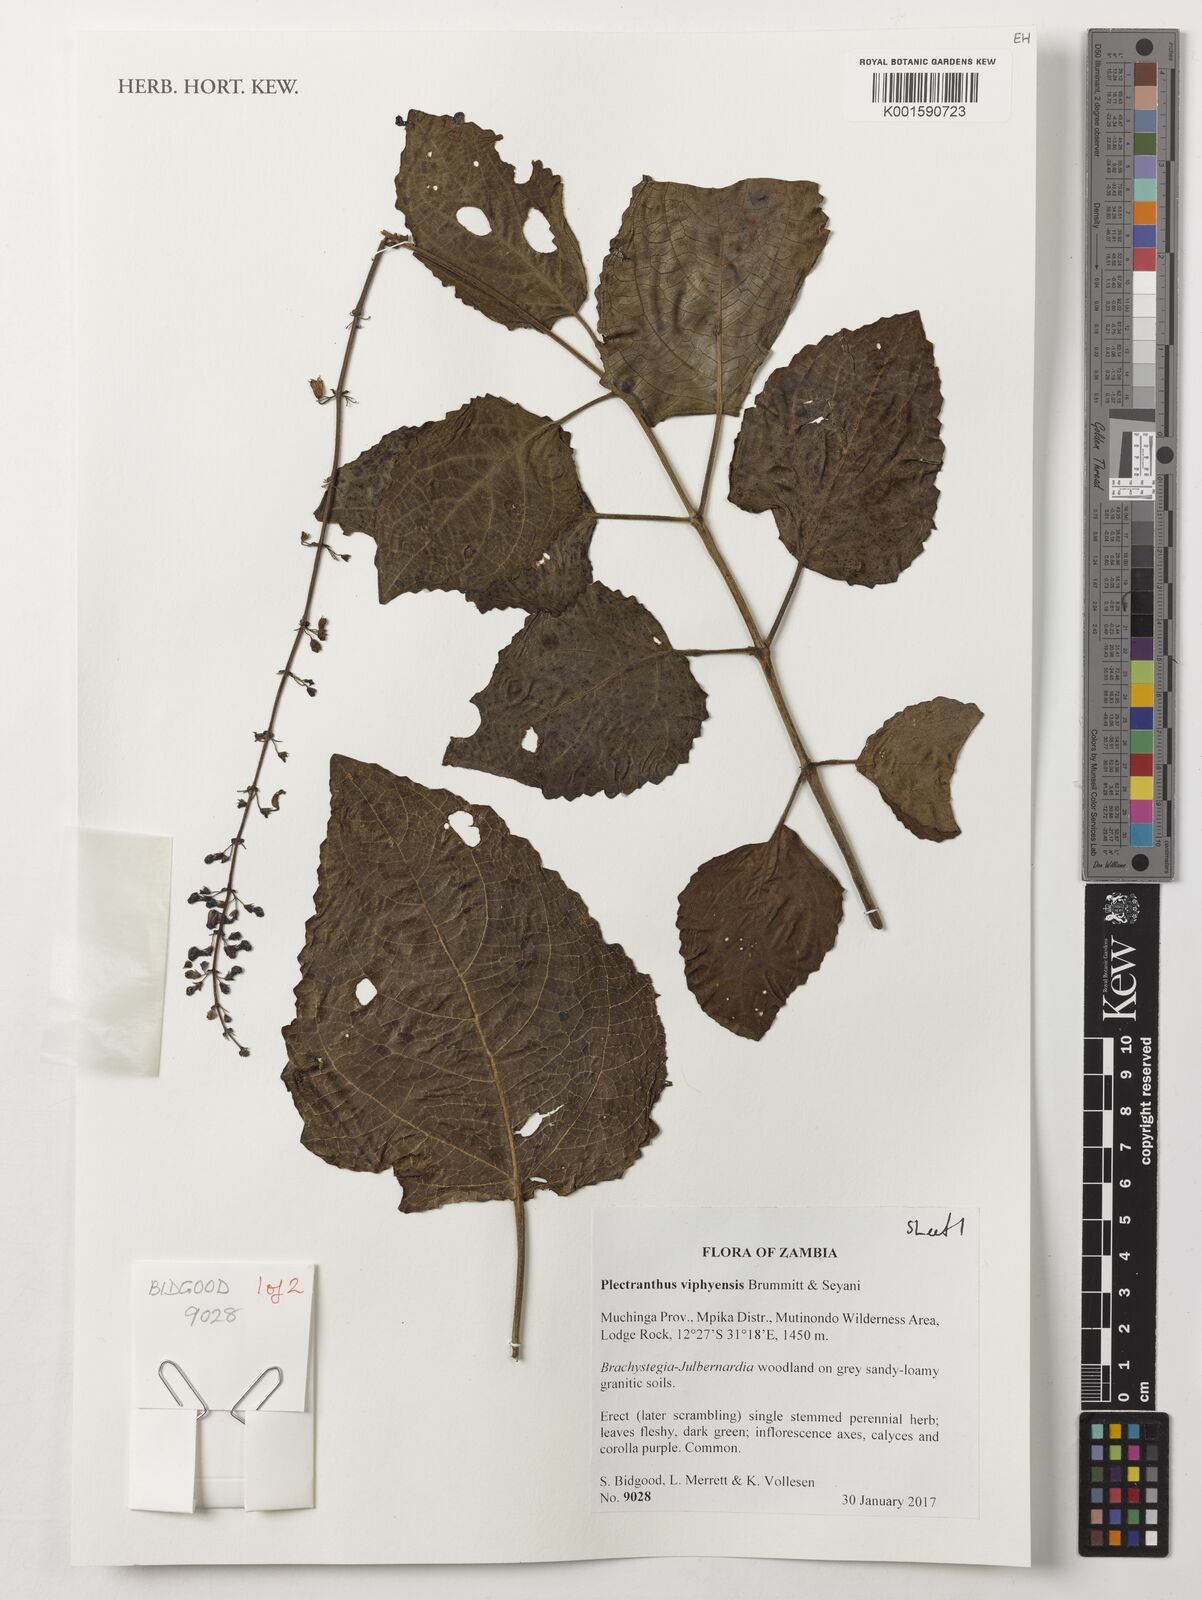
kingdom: Plantae
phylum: Tracheophyta
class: Magnoliopsida
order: Lamiales
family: Lamiaceae
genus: Equilabium
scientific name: Equilabium viphyense
